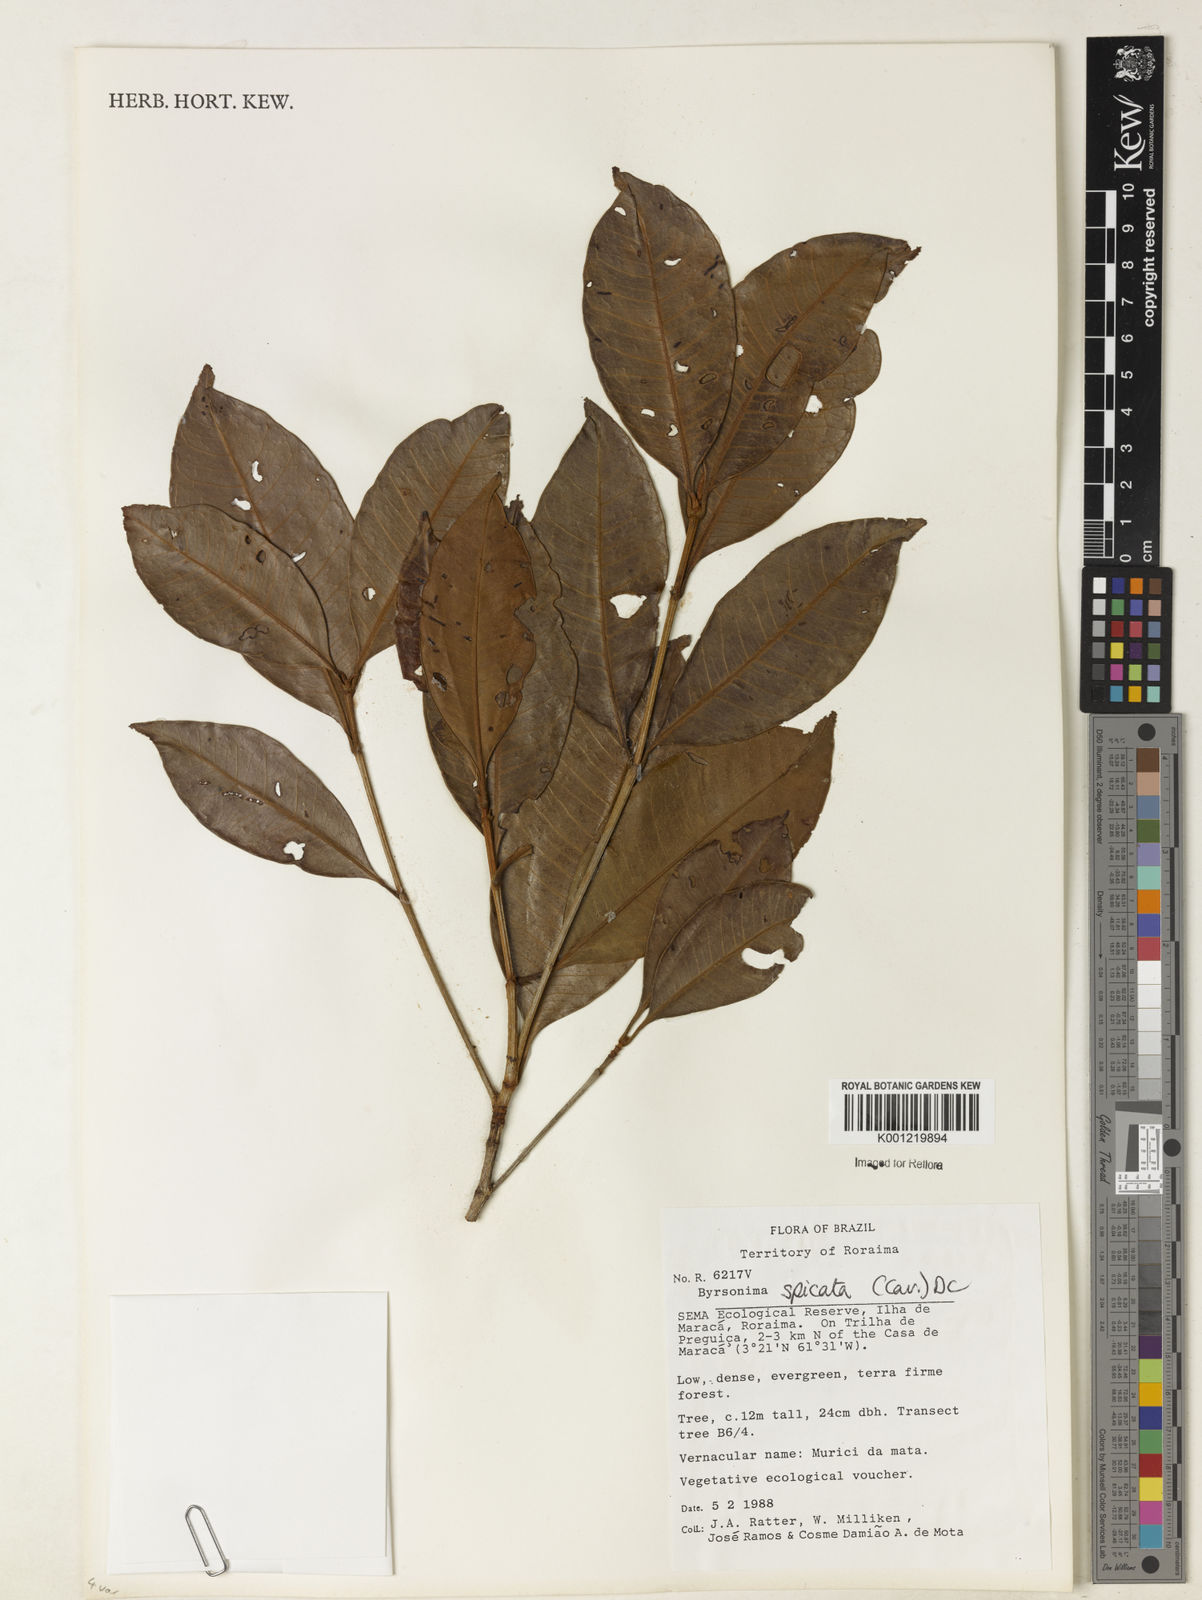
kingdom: Plantae
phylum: Tracheophyta
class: Magnoliopsida
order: Malpighiales
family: Malpighiaceae
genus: Byrsonima
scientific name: Byrsonima
